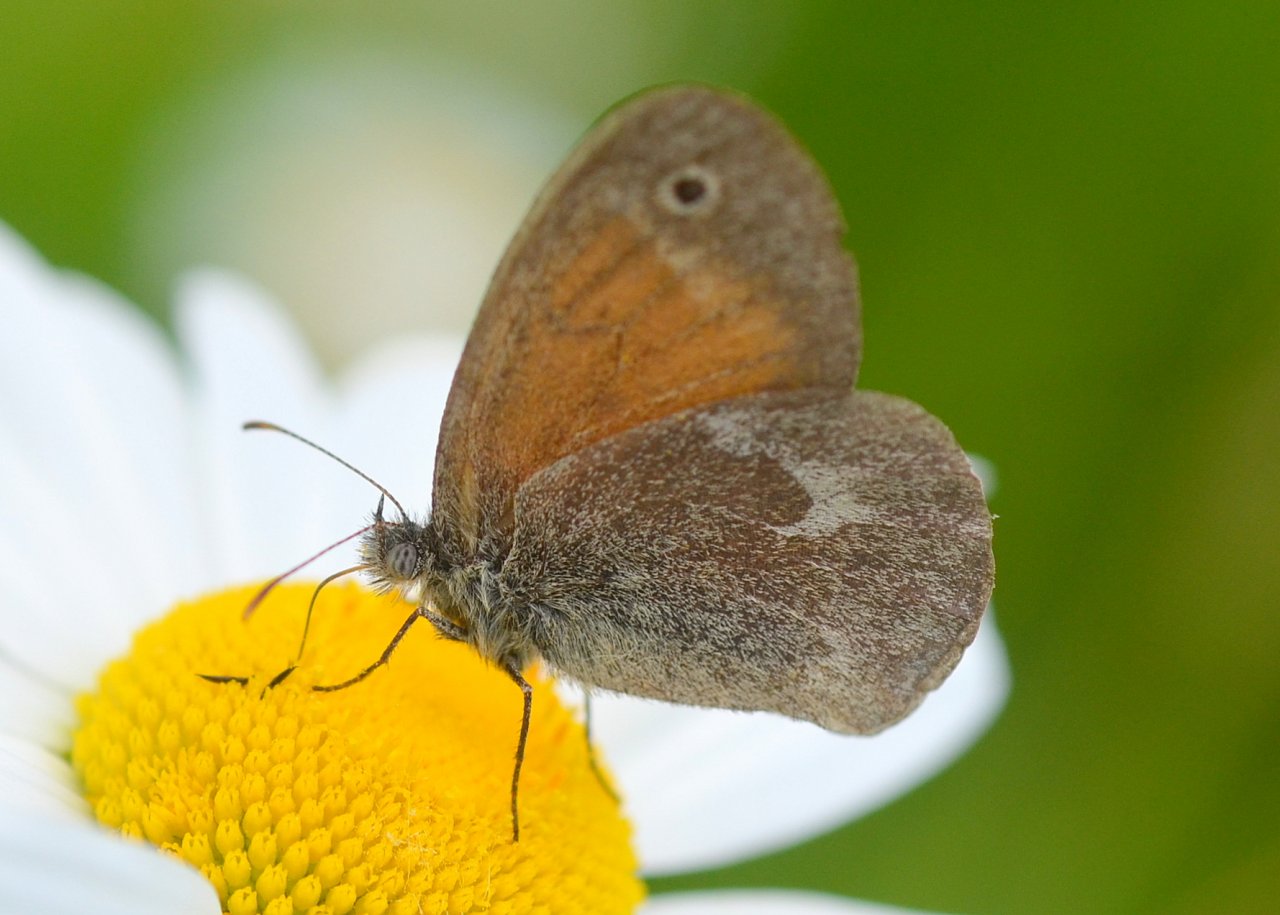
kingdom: Animalia
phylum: Arthropoda
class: Insecta
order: Lepidoptera
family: Nymphalidae
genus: Coenonympha
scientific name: Coenonympha tullia
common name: Large Heath
